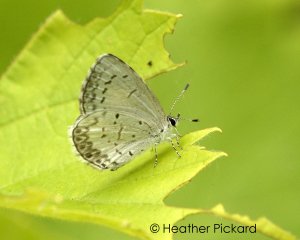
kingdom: Animalia
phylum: Arthropoda
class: Insecta
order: Lepidoptera
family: Lycaenidae
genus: Cyaniris
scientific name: Cyaniris neglecta
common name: Summer Azure
